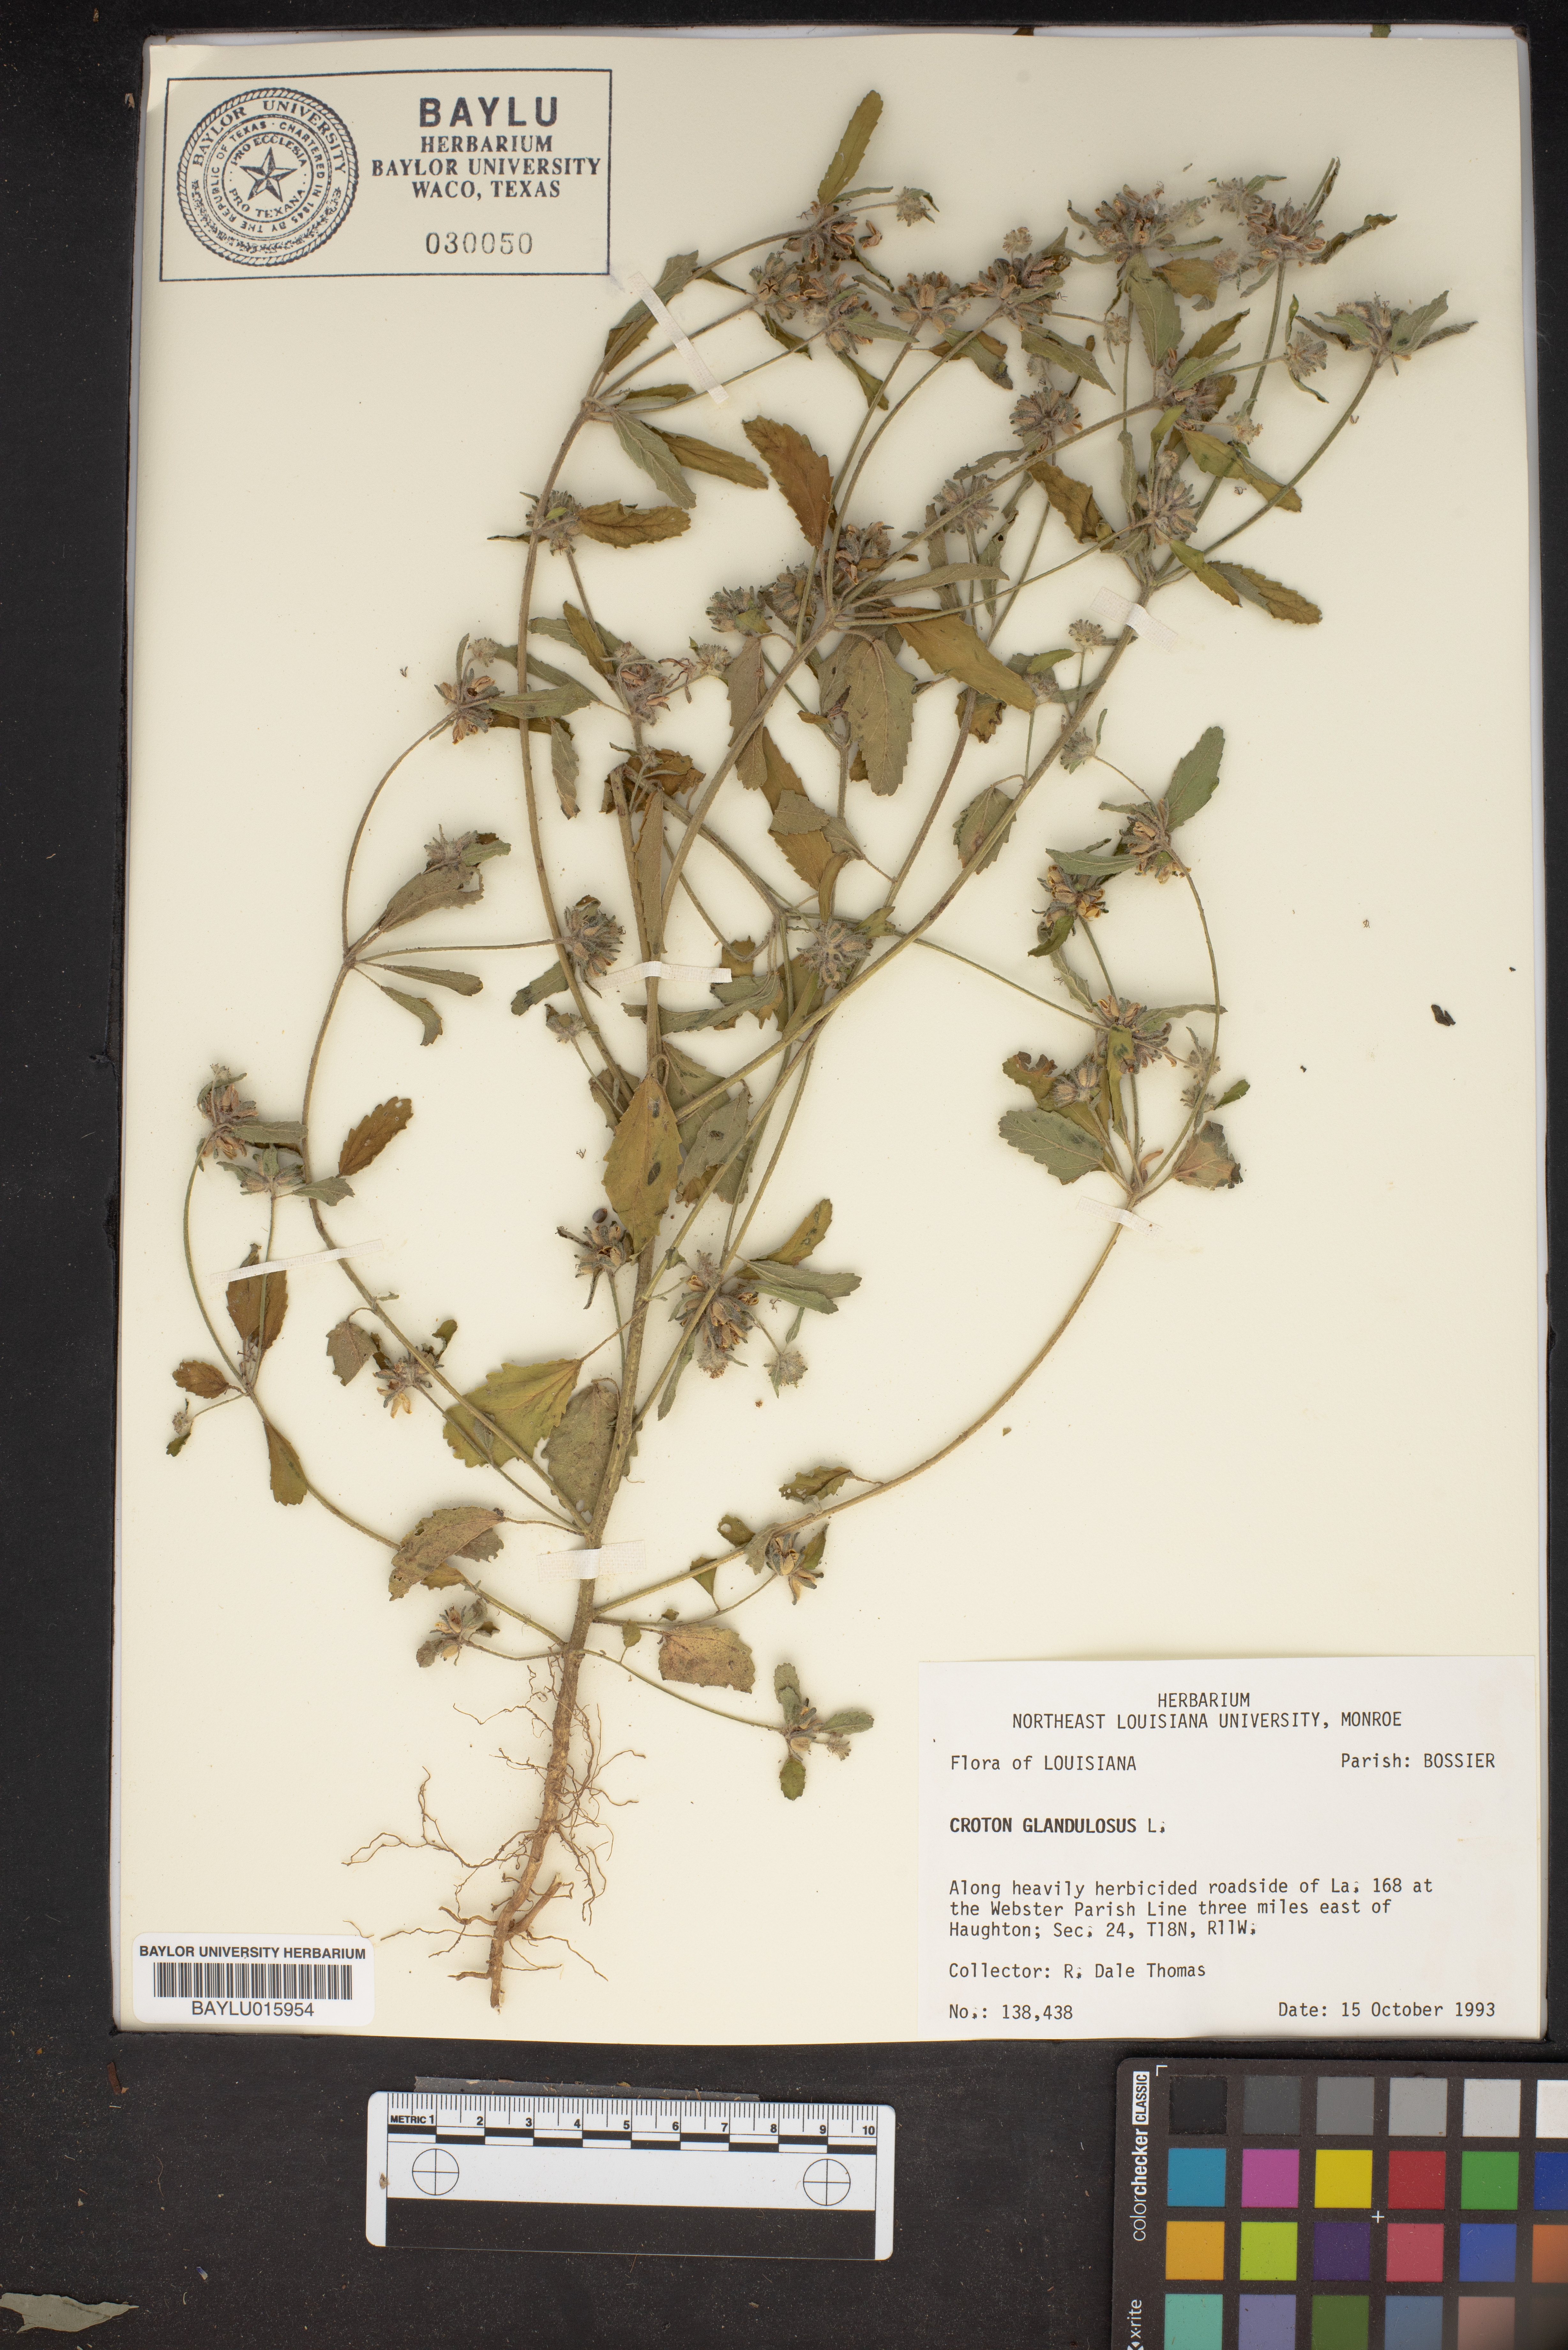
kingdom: Plantae
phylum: Tracheophyta
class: Magnoliopsida
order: Malpighiales
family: Euphorbiaceae
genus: Croton
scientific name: Croton glandulosus
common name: Tropic croton
